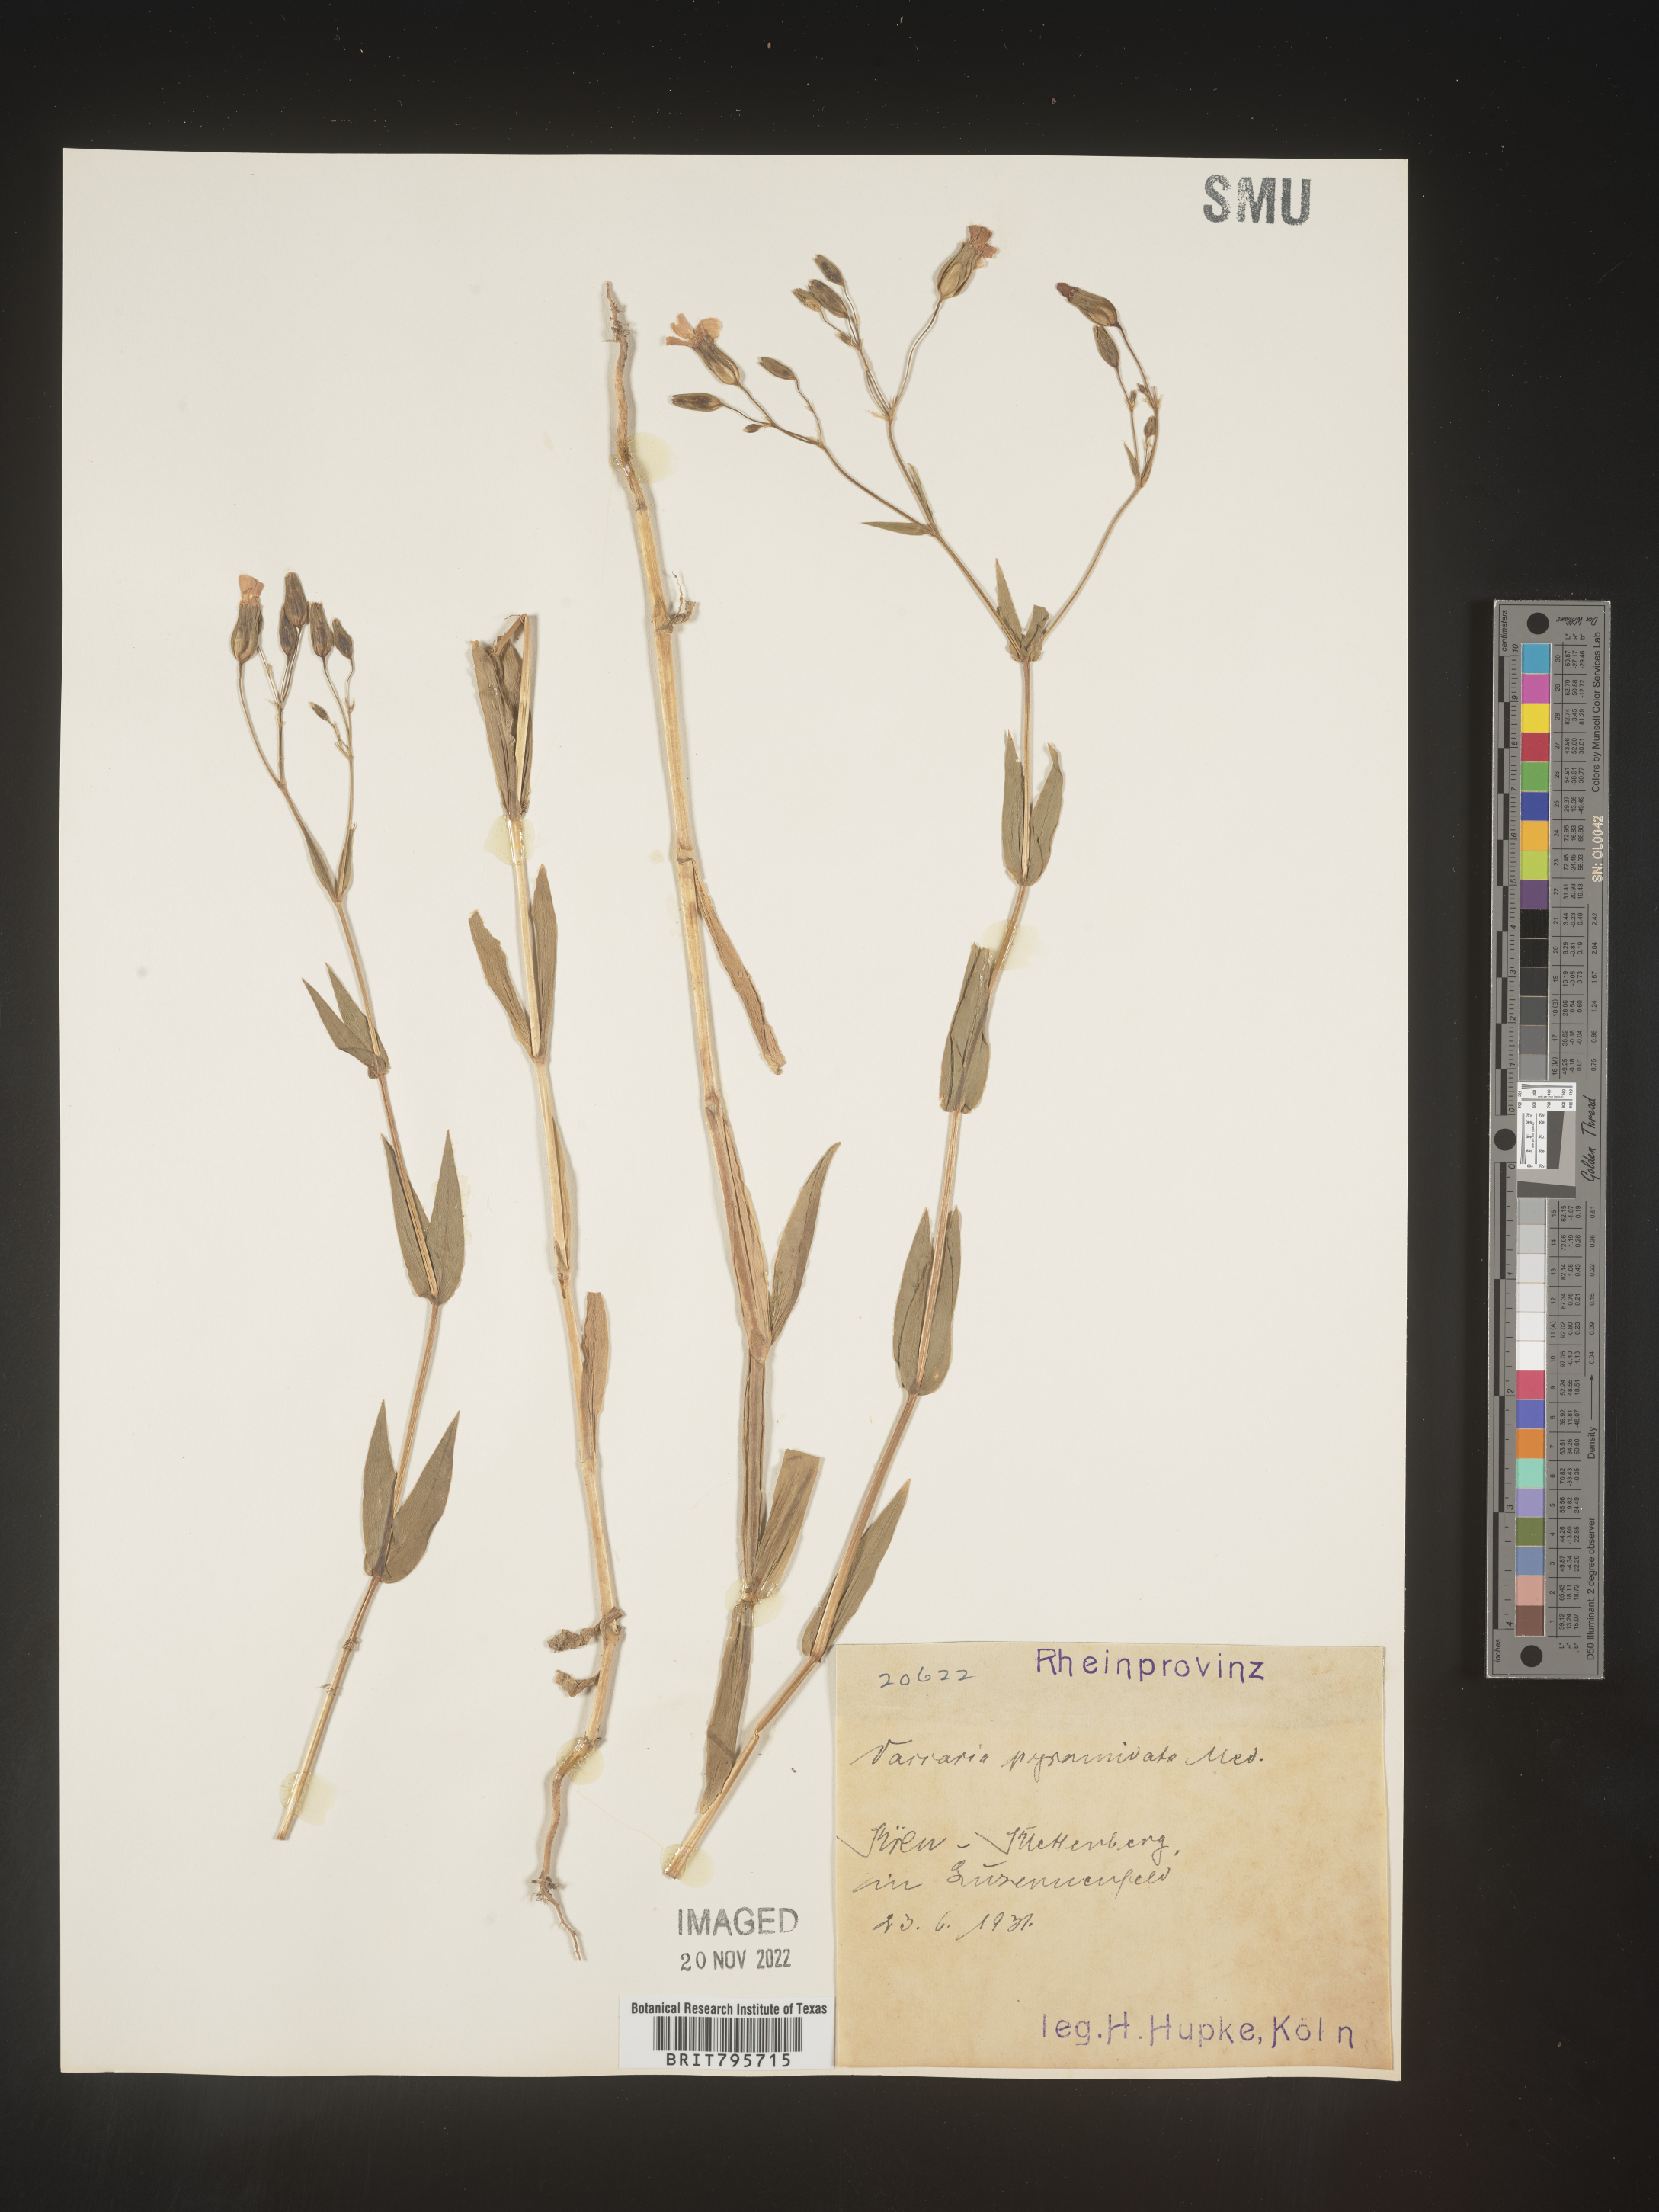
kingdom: Plantae
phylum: Tracheophyta
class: Magnoliopsida
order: Caryophyllales
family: Caryophyllaceae
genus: Vaccaria
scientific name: Vaccaria
